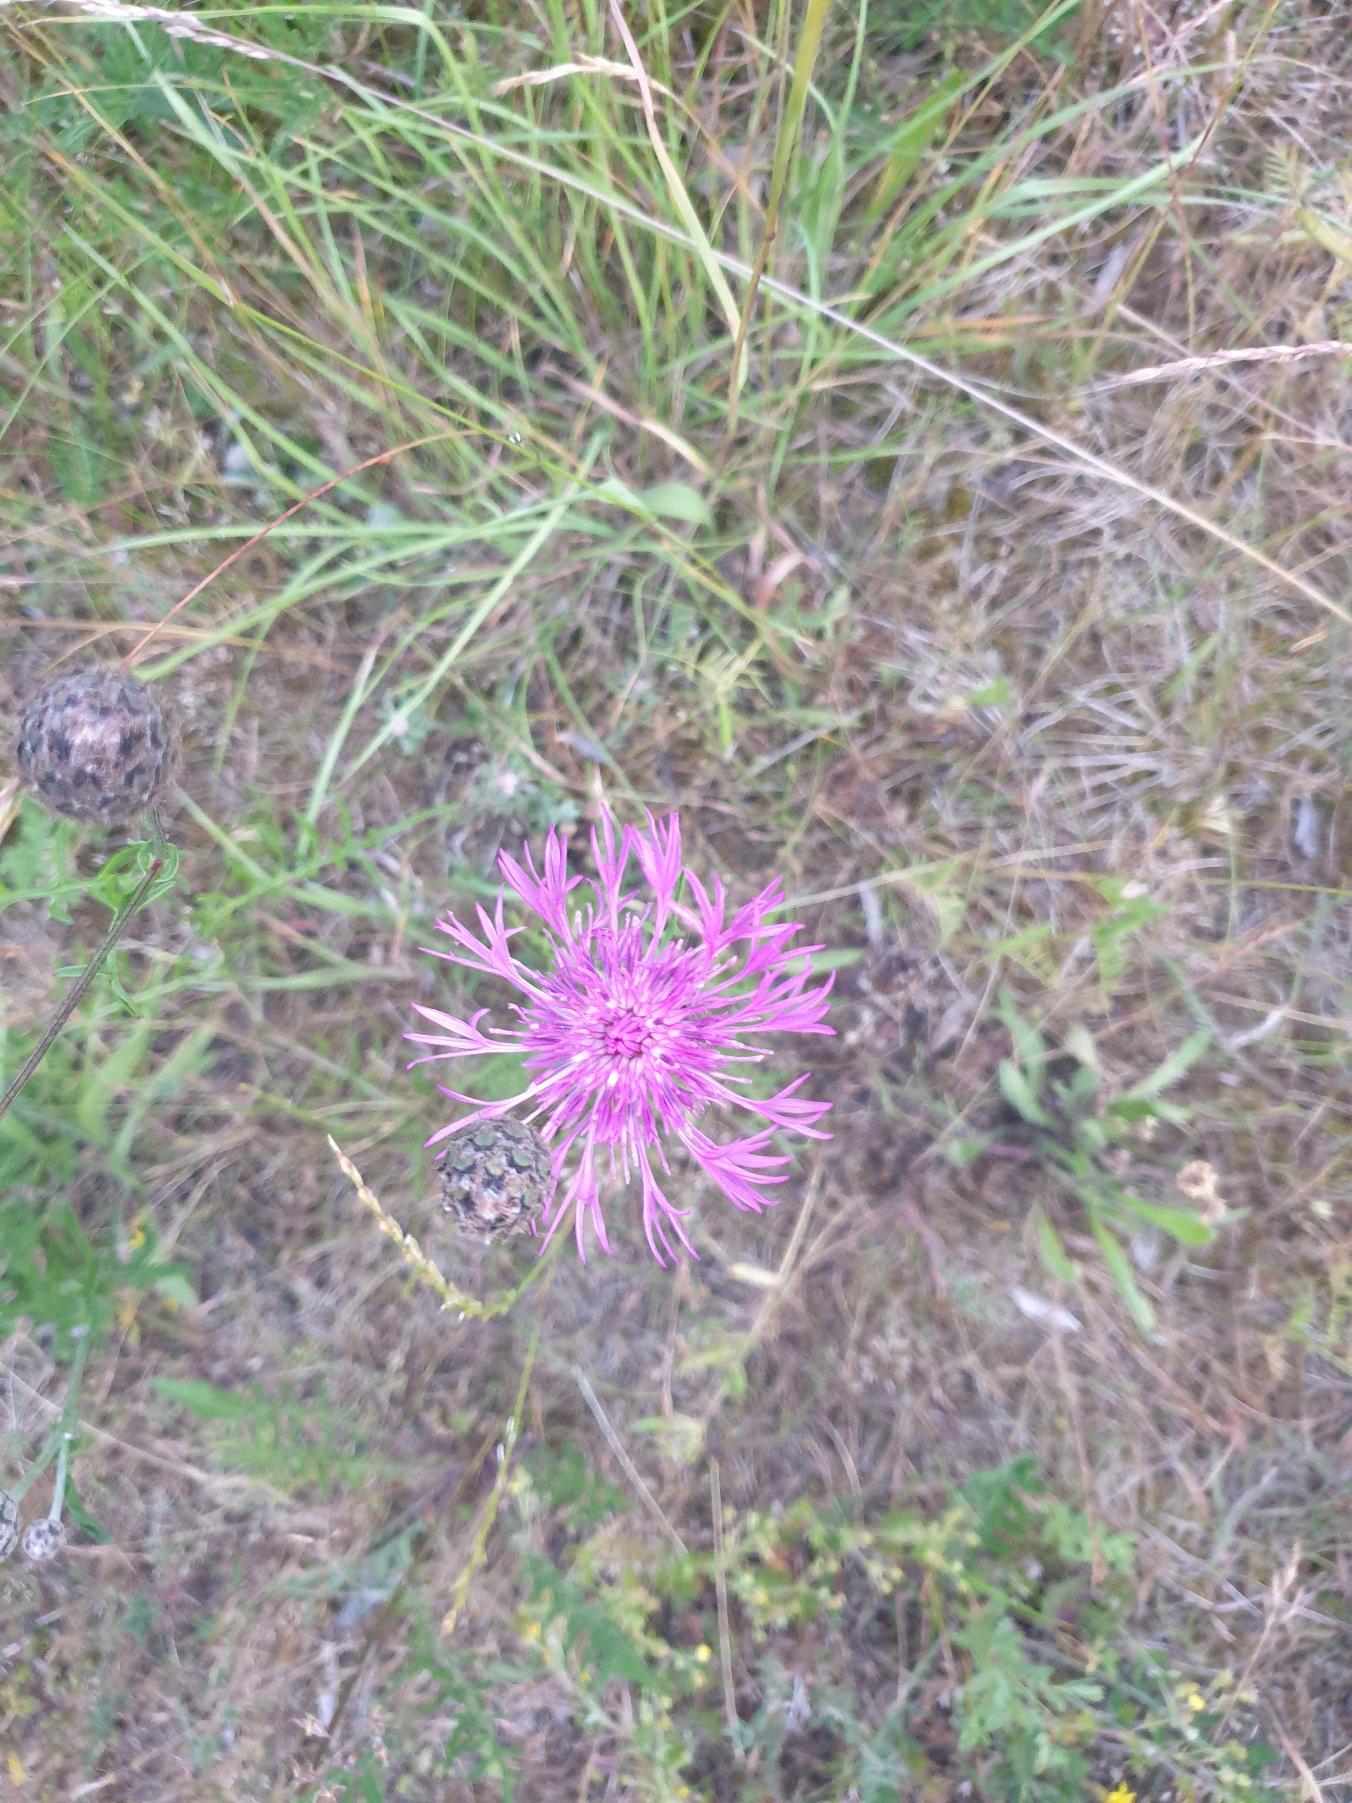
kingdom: Plantae
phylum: Tracheophyta
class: Magnoliopsida
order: Asterales
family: Asteraceae
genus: Centaurea
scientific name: Centaurea scabiosa
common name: Stor knopurt
